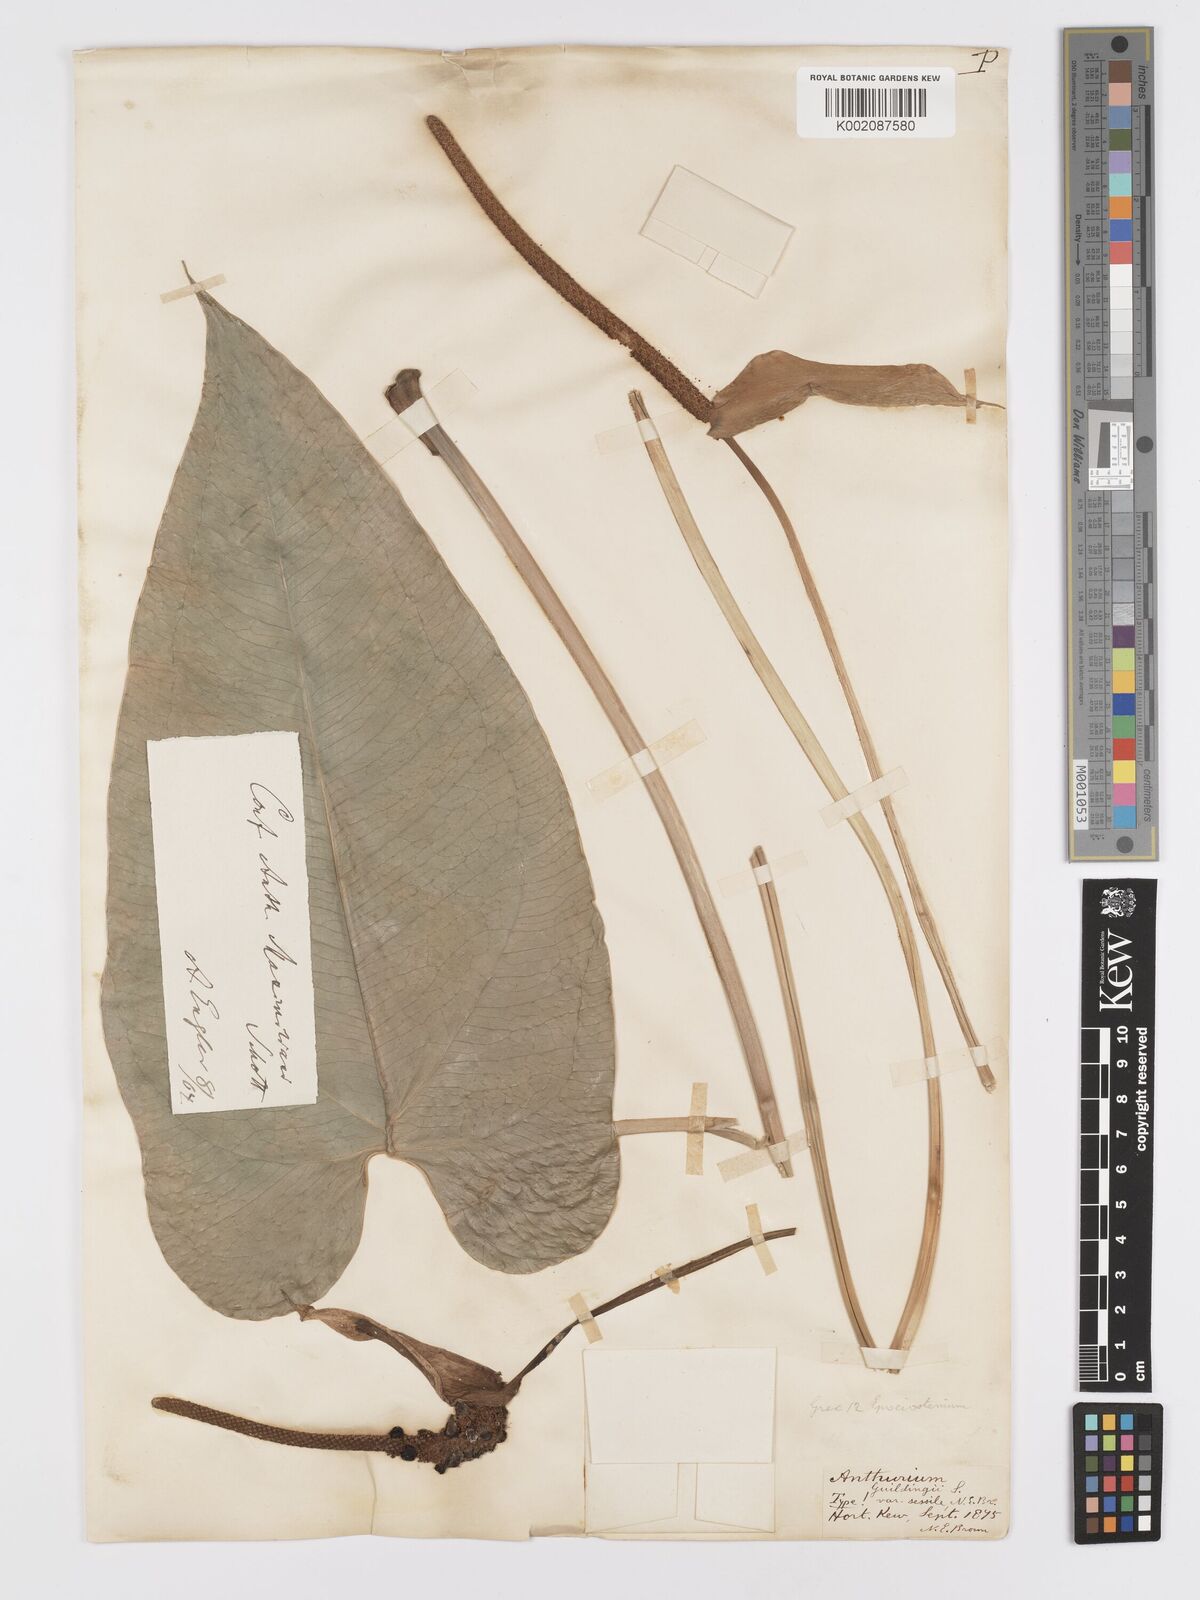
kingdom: Plantae
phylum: Tracheophyta
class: Liliopsida
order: Alismatales
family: Araceae
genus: Anthurium
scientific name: Anthurium cordatum
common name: Monkey tail
